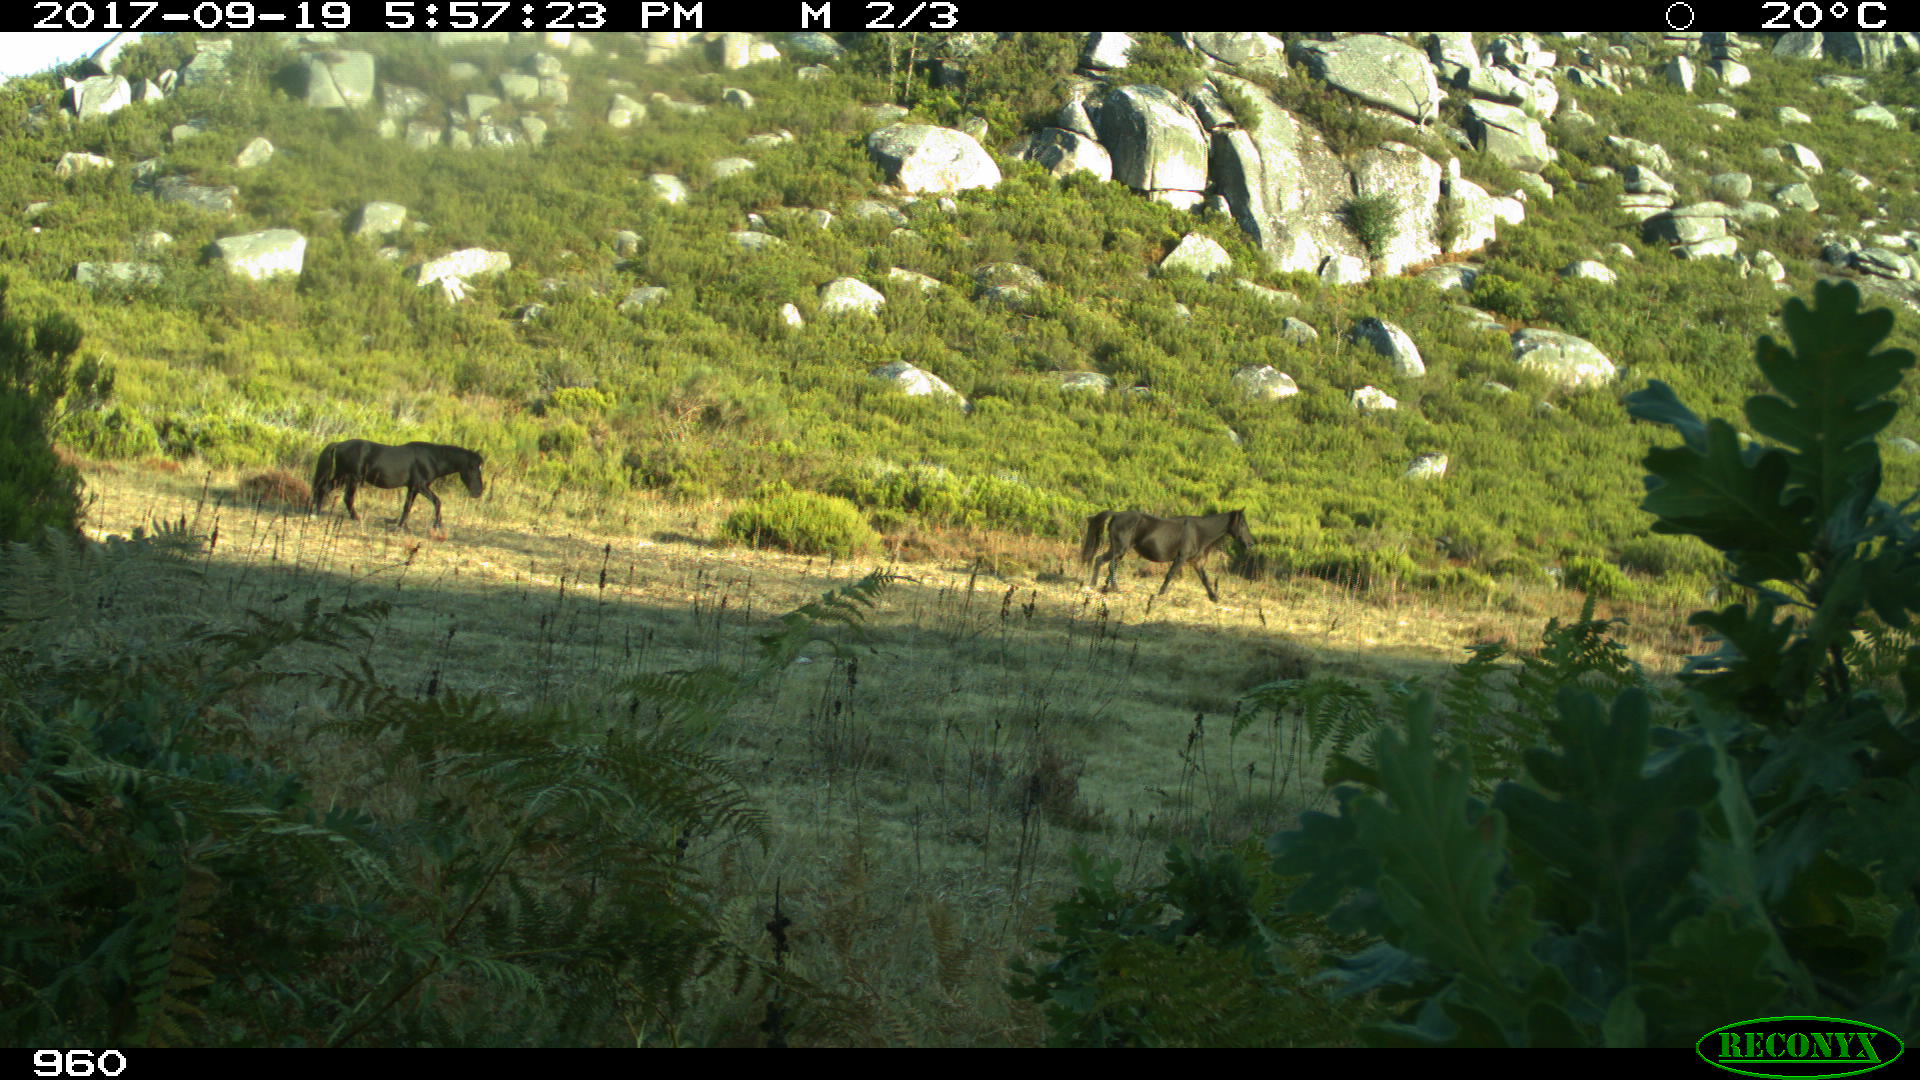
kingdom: Animalia
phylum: Chordata
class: Mammalia
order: Perissodactyla
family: Equidae
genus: Equus
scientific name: Equus caballus
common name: Horse
